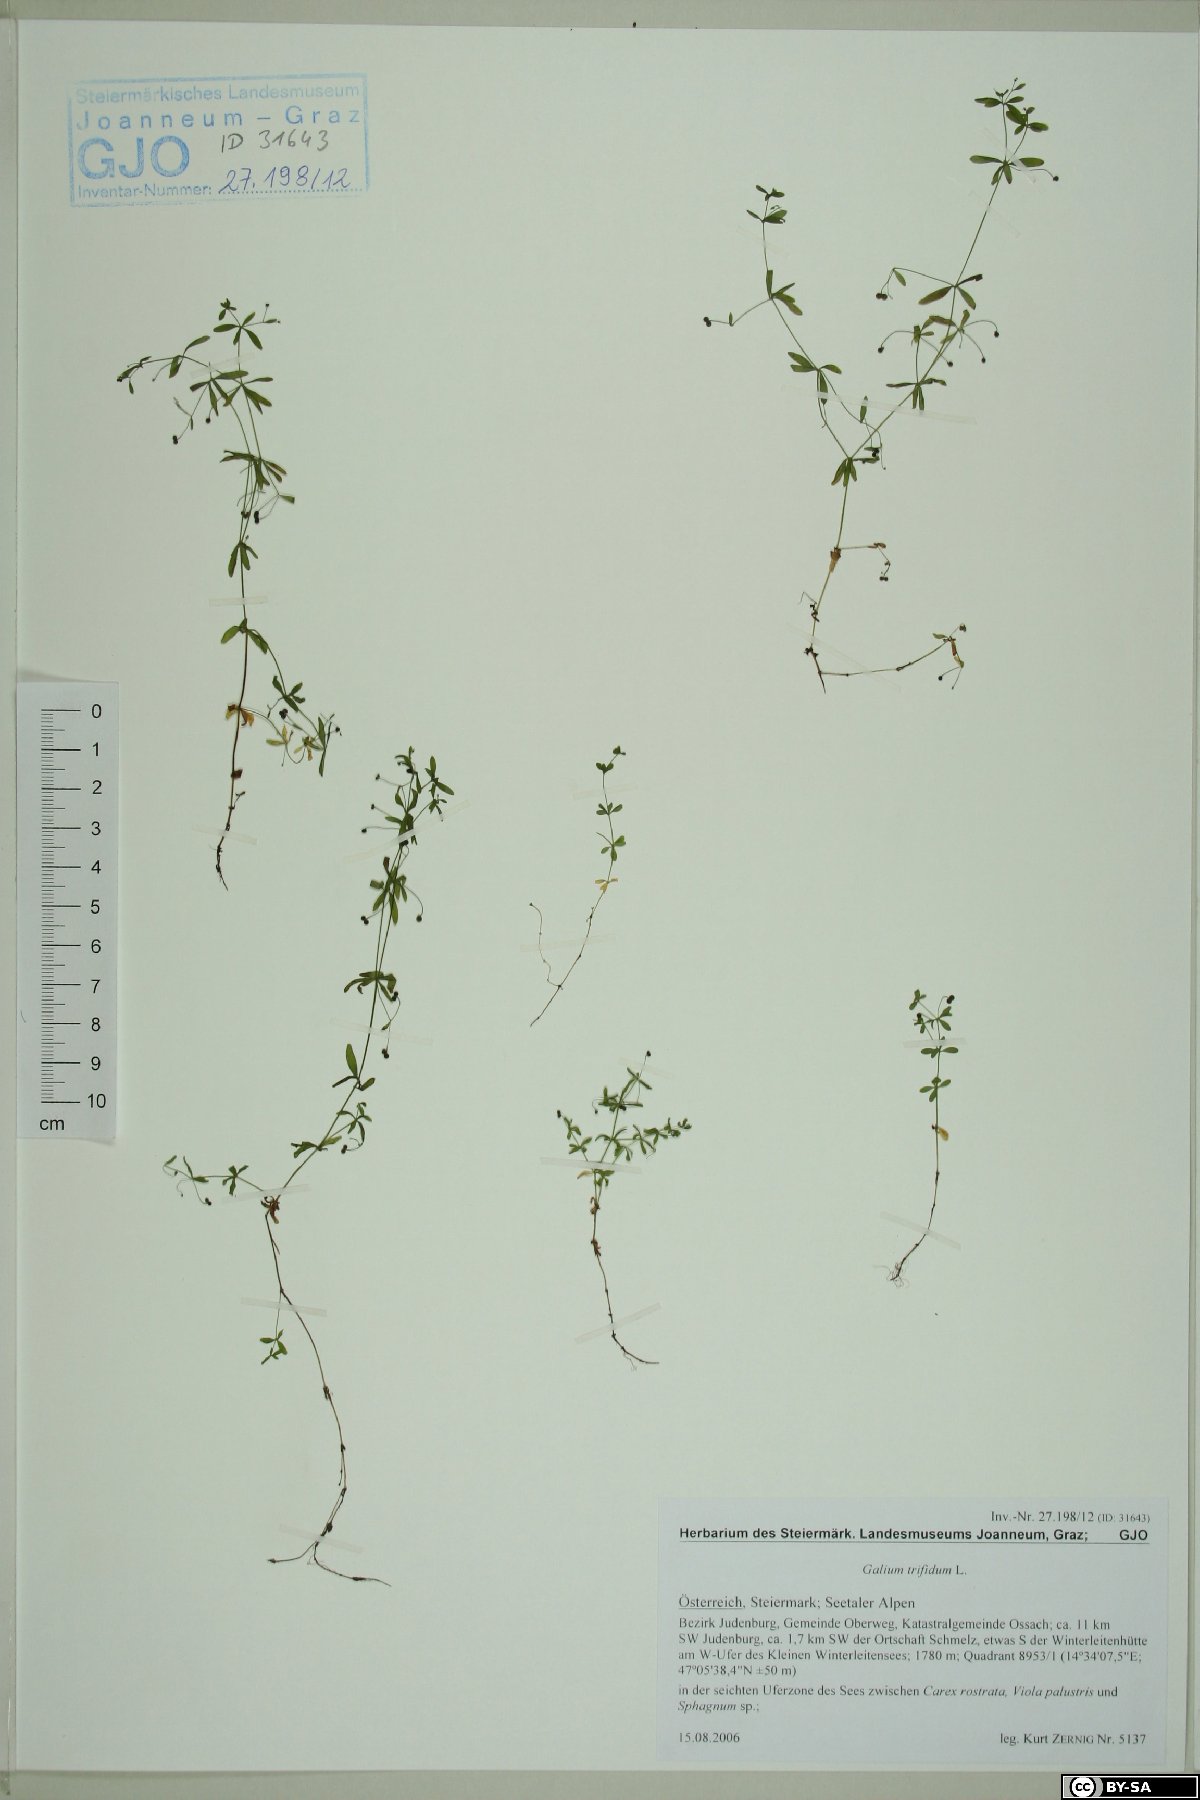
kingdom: Plantae
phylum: Tracheophyta
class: Magnoliopsida
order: Gentianales
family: Rubiaceae
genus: Galium
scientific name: Galium trifidum
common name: Small bedstraw
